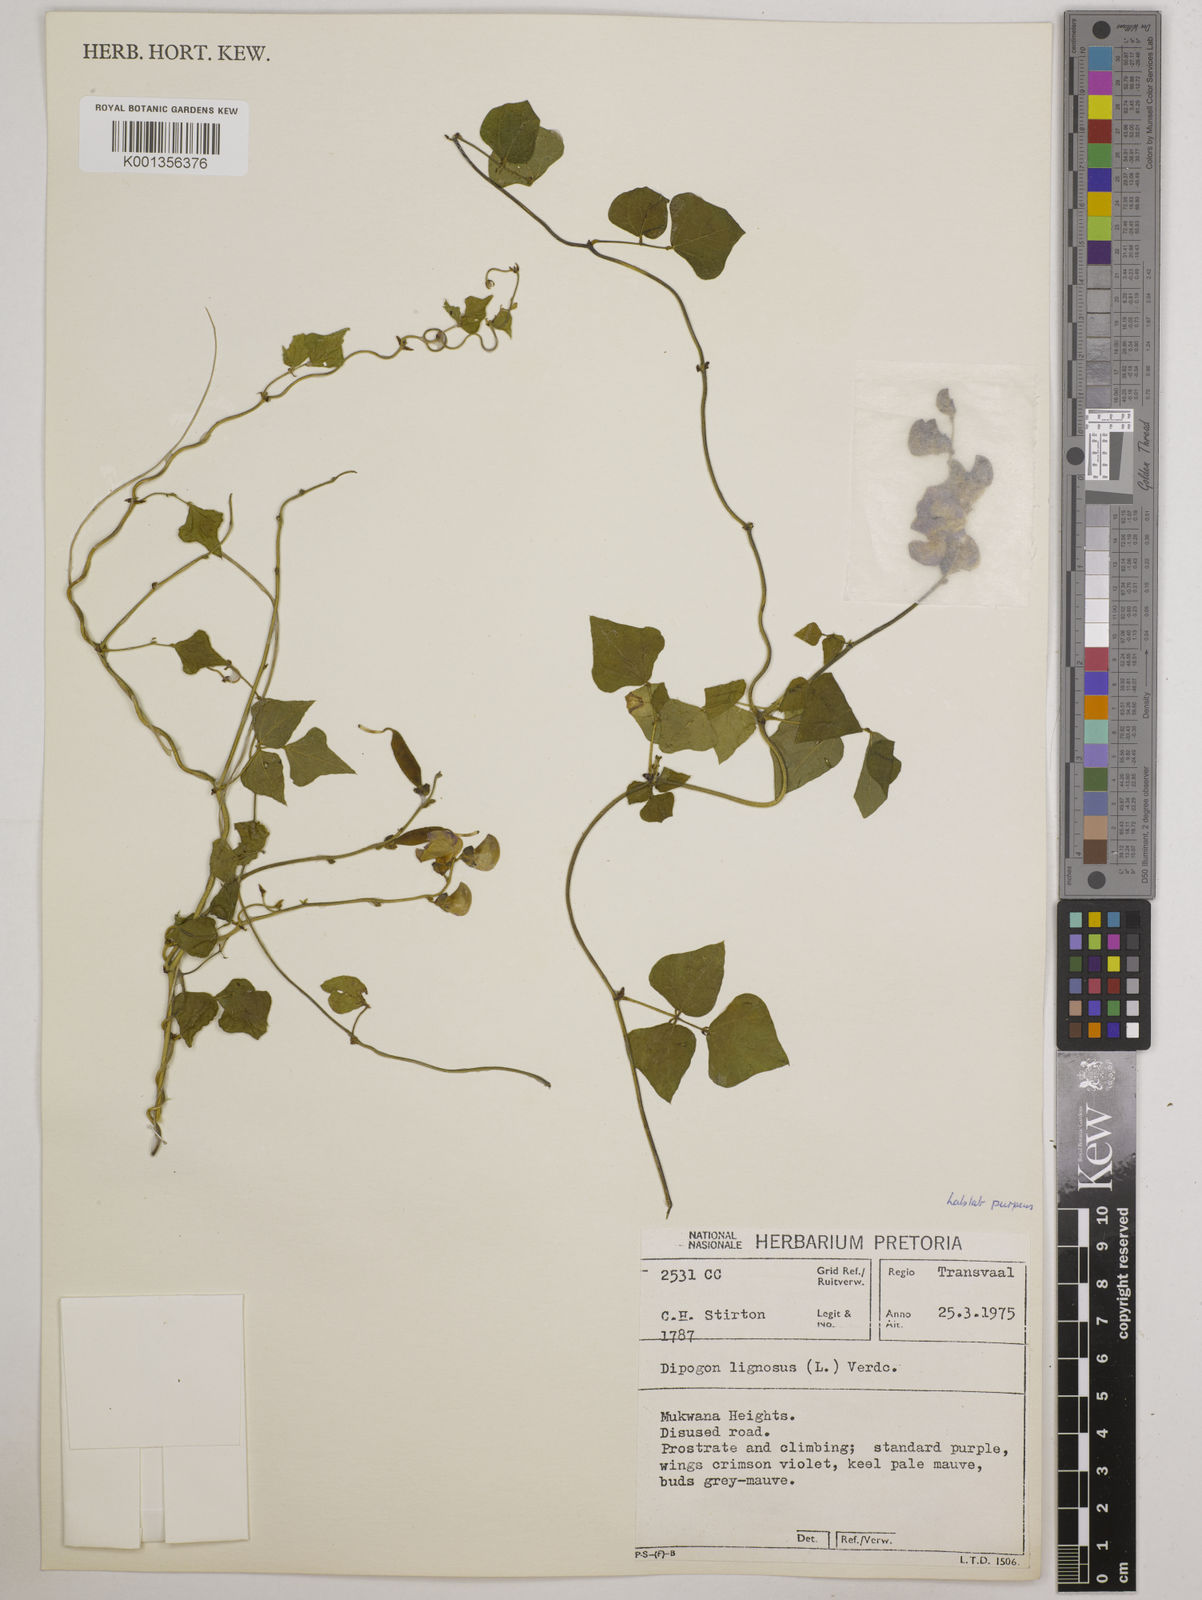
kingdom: Plantae
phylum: Tracheophyta
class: Magnoliopsida
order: Fabales
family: Fabaceae
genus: Lablab
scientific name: Lablab purpureus
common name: Lablab-bean
